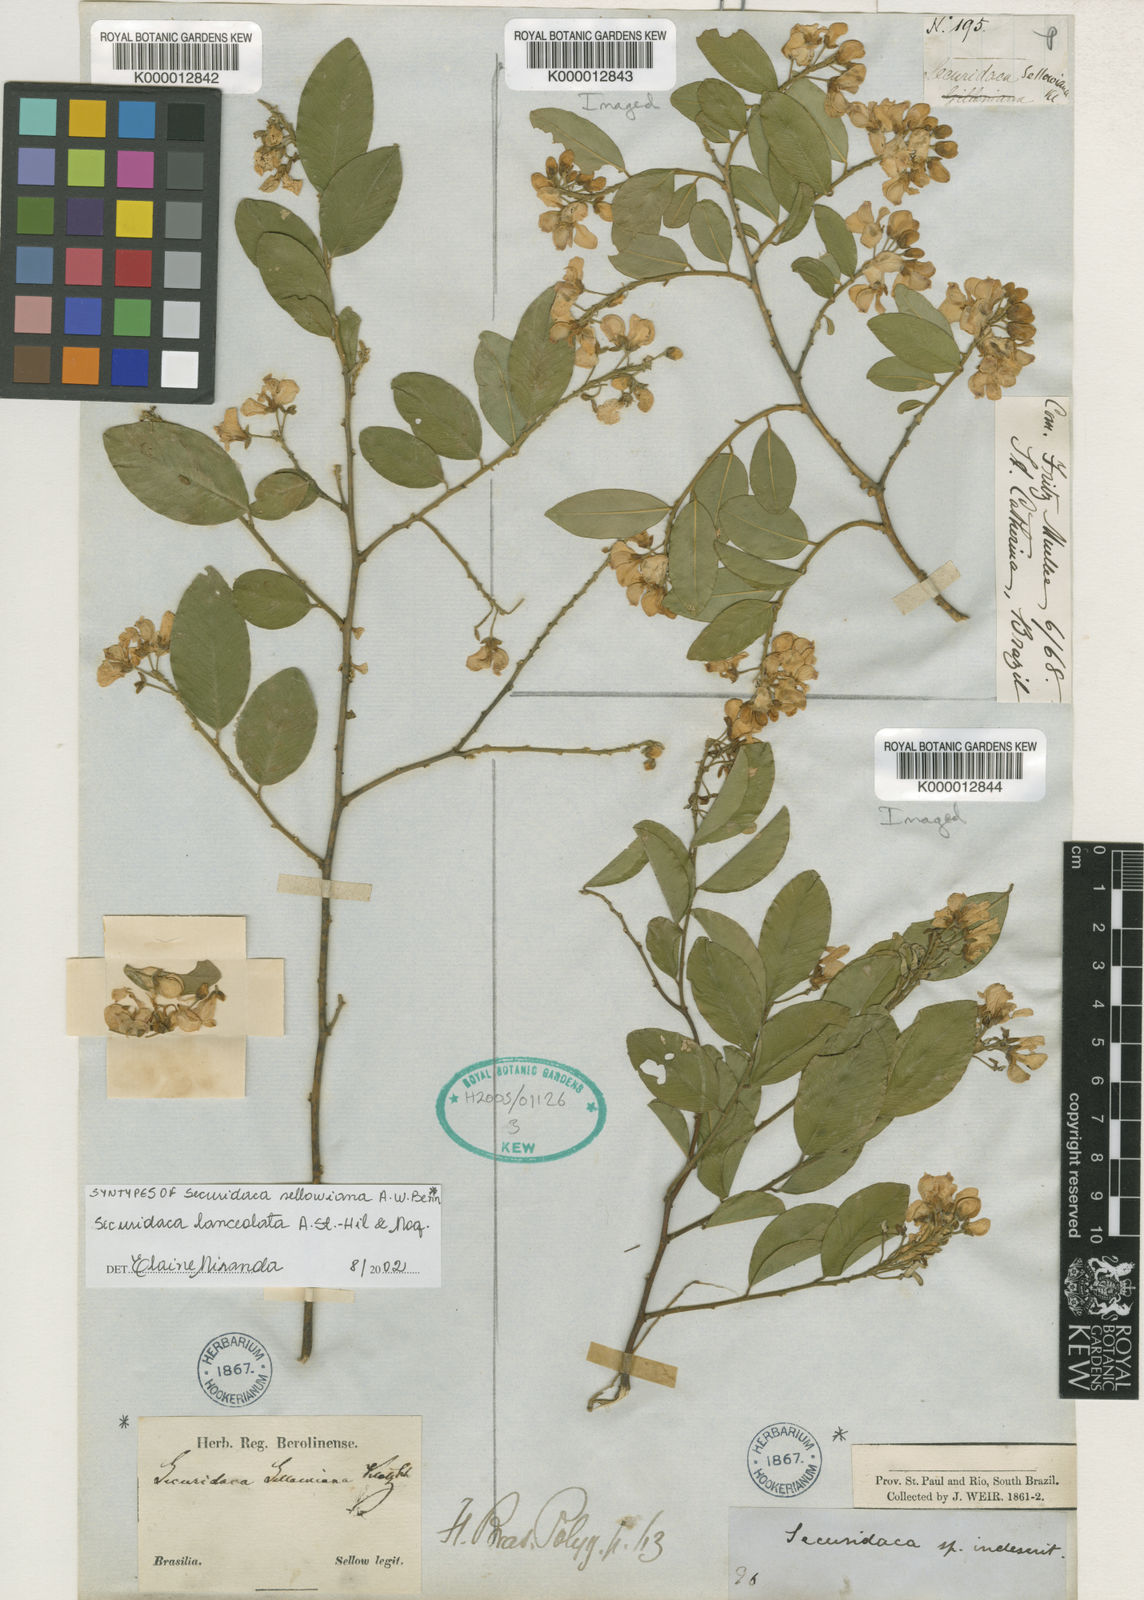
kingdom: Plantae
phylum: Tracheophyta
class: Magnoliopsida
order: Fabales
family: Polygalaceae
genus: Securidaca
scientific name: Securidaca lanceolata
